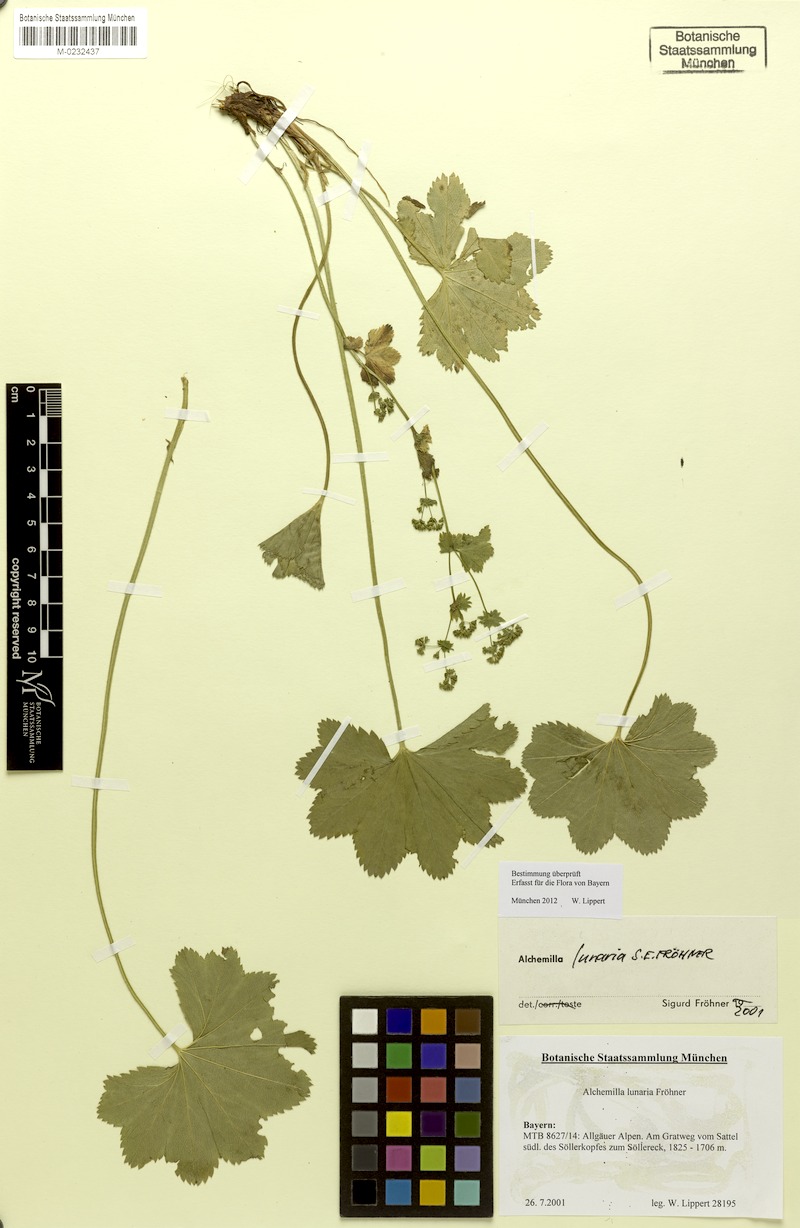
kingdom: Plantae
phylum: Tracheophyta
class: Magnoliopsida
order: Rosales
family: Rosaceae
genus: Alchemilla
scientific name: Alchemilla lunaria
